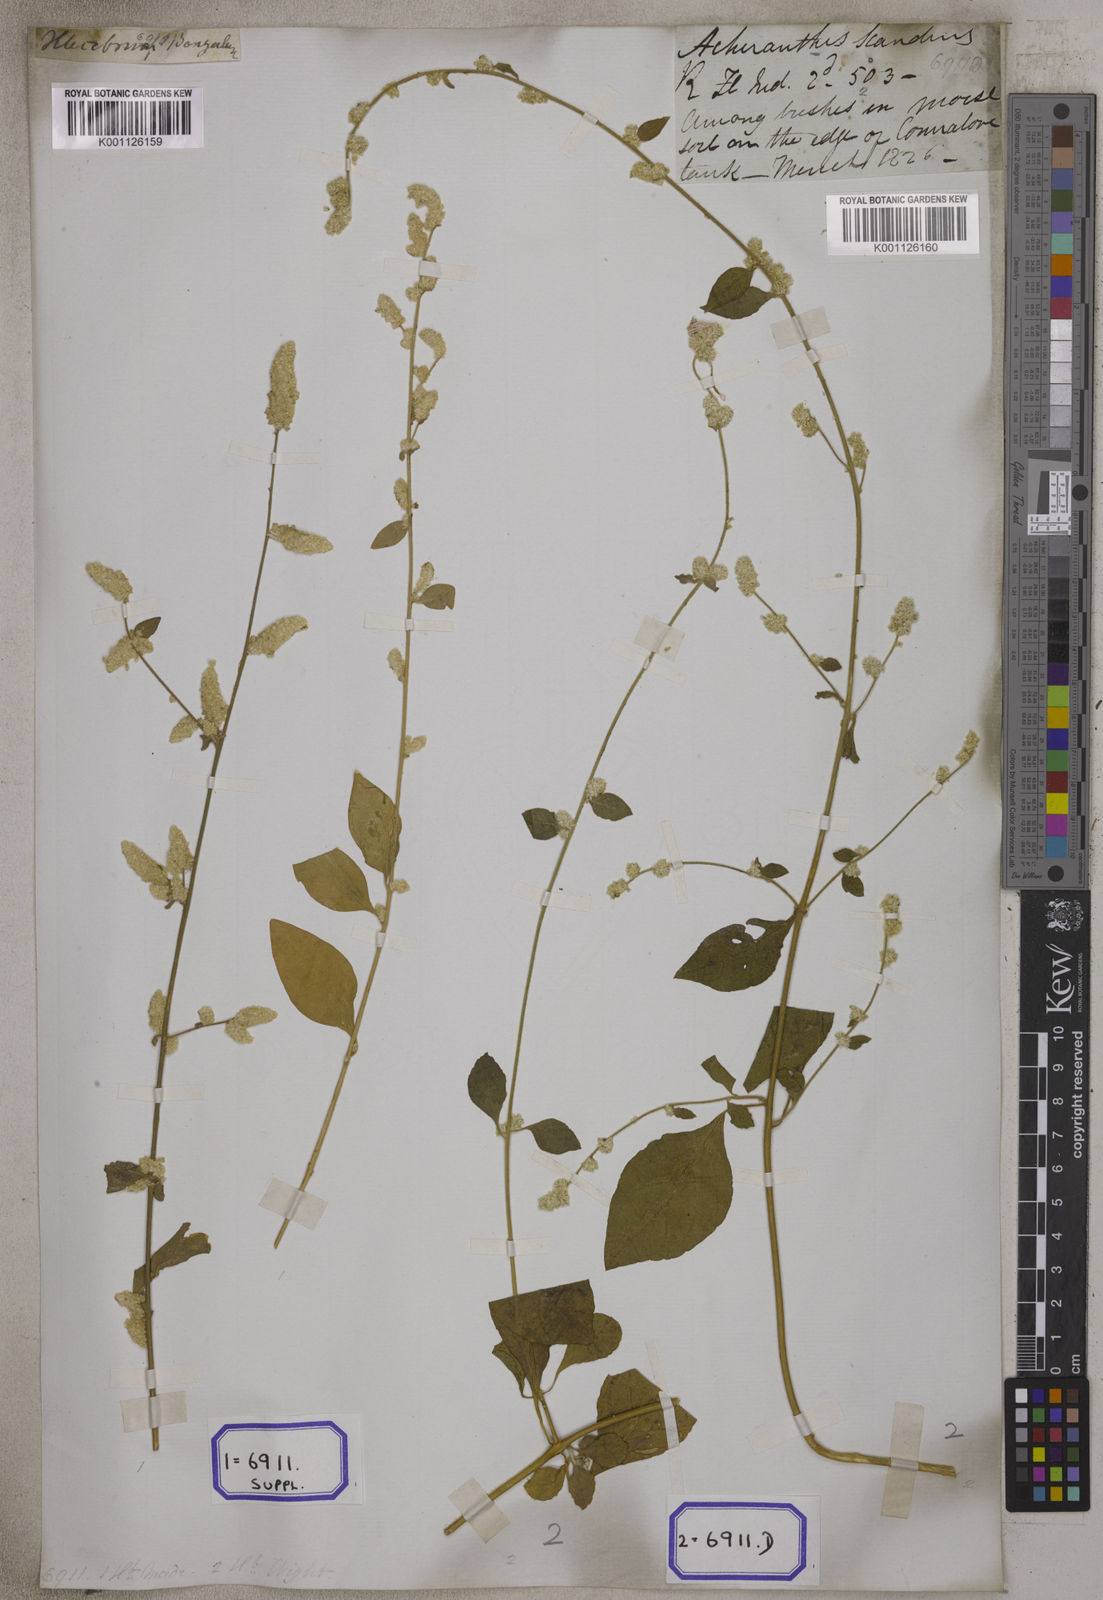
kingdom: Plantae
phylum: Tracheophyta
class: Magnoliopsida
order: Caryophyllales
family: Amaranthaceae
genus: Ouret
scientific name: Ouret sanguinolenta
